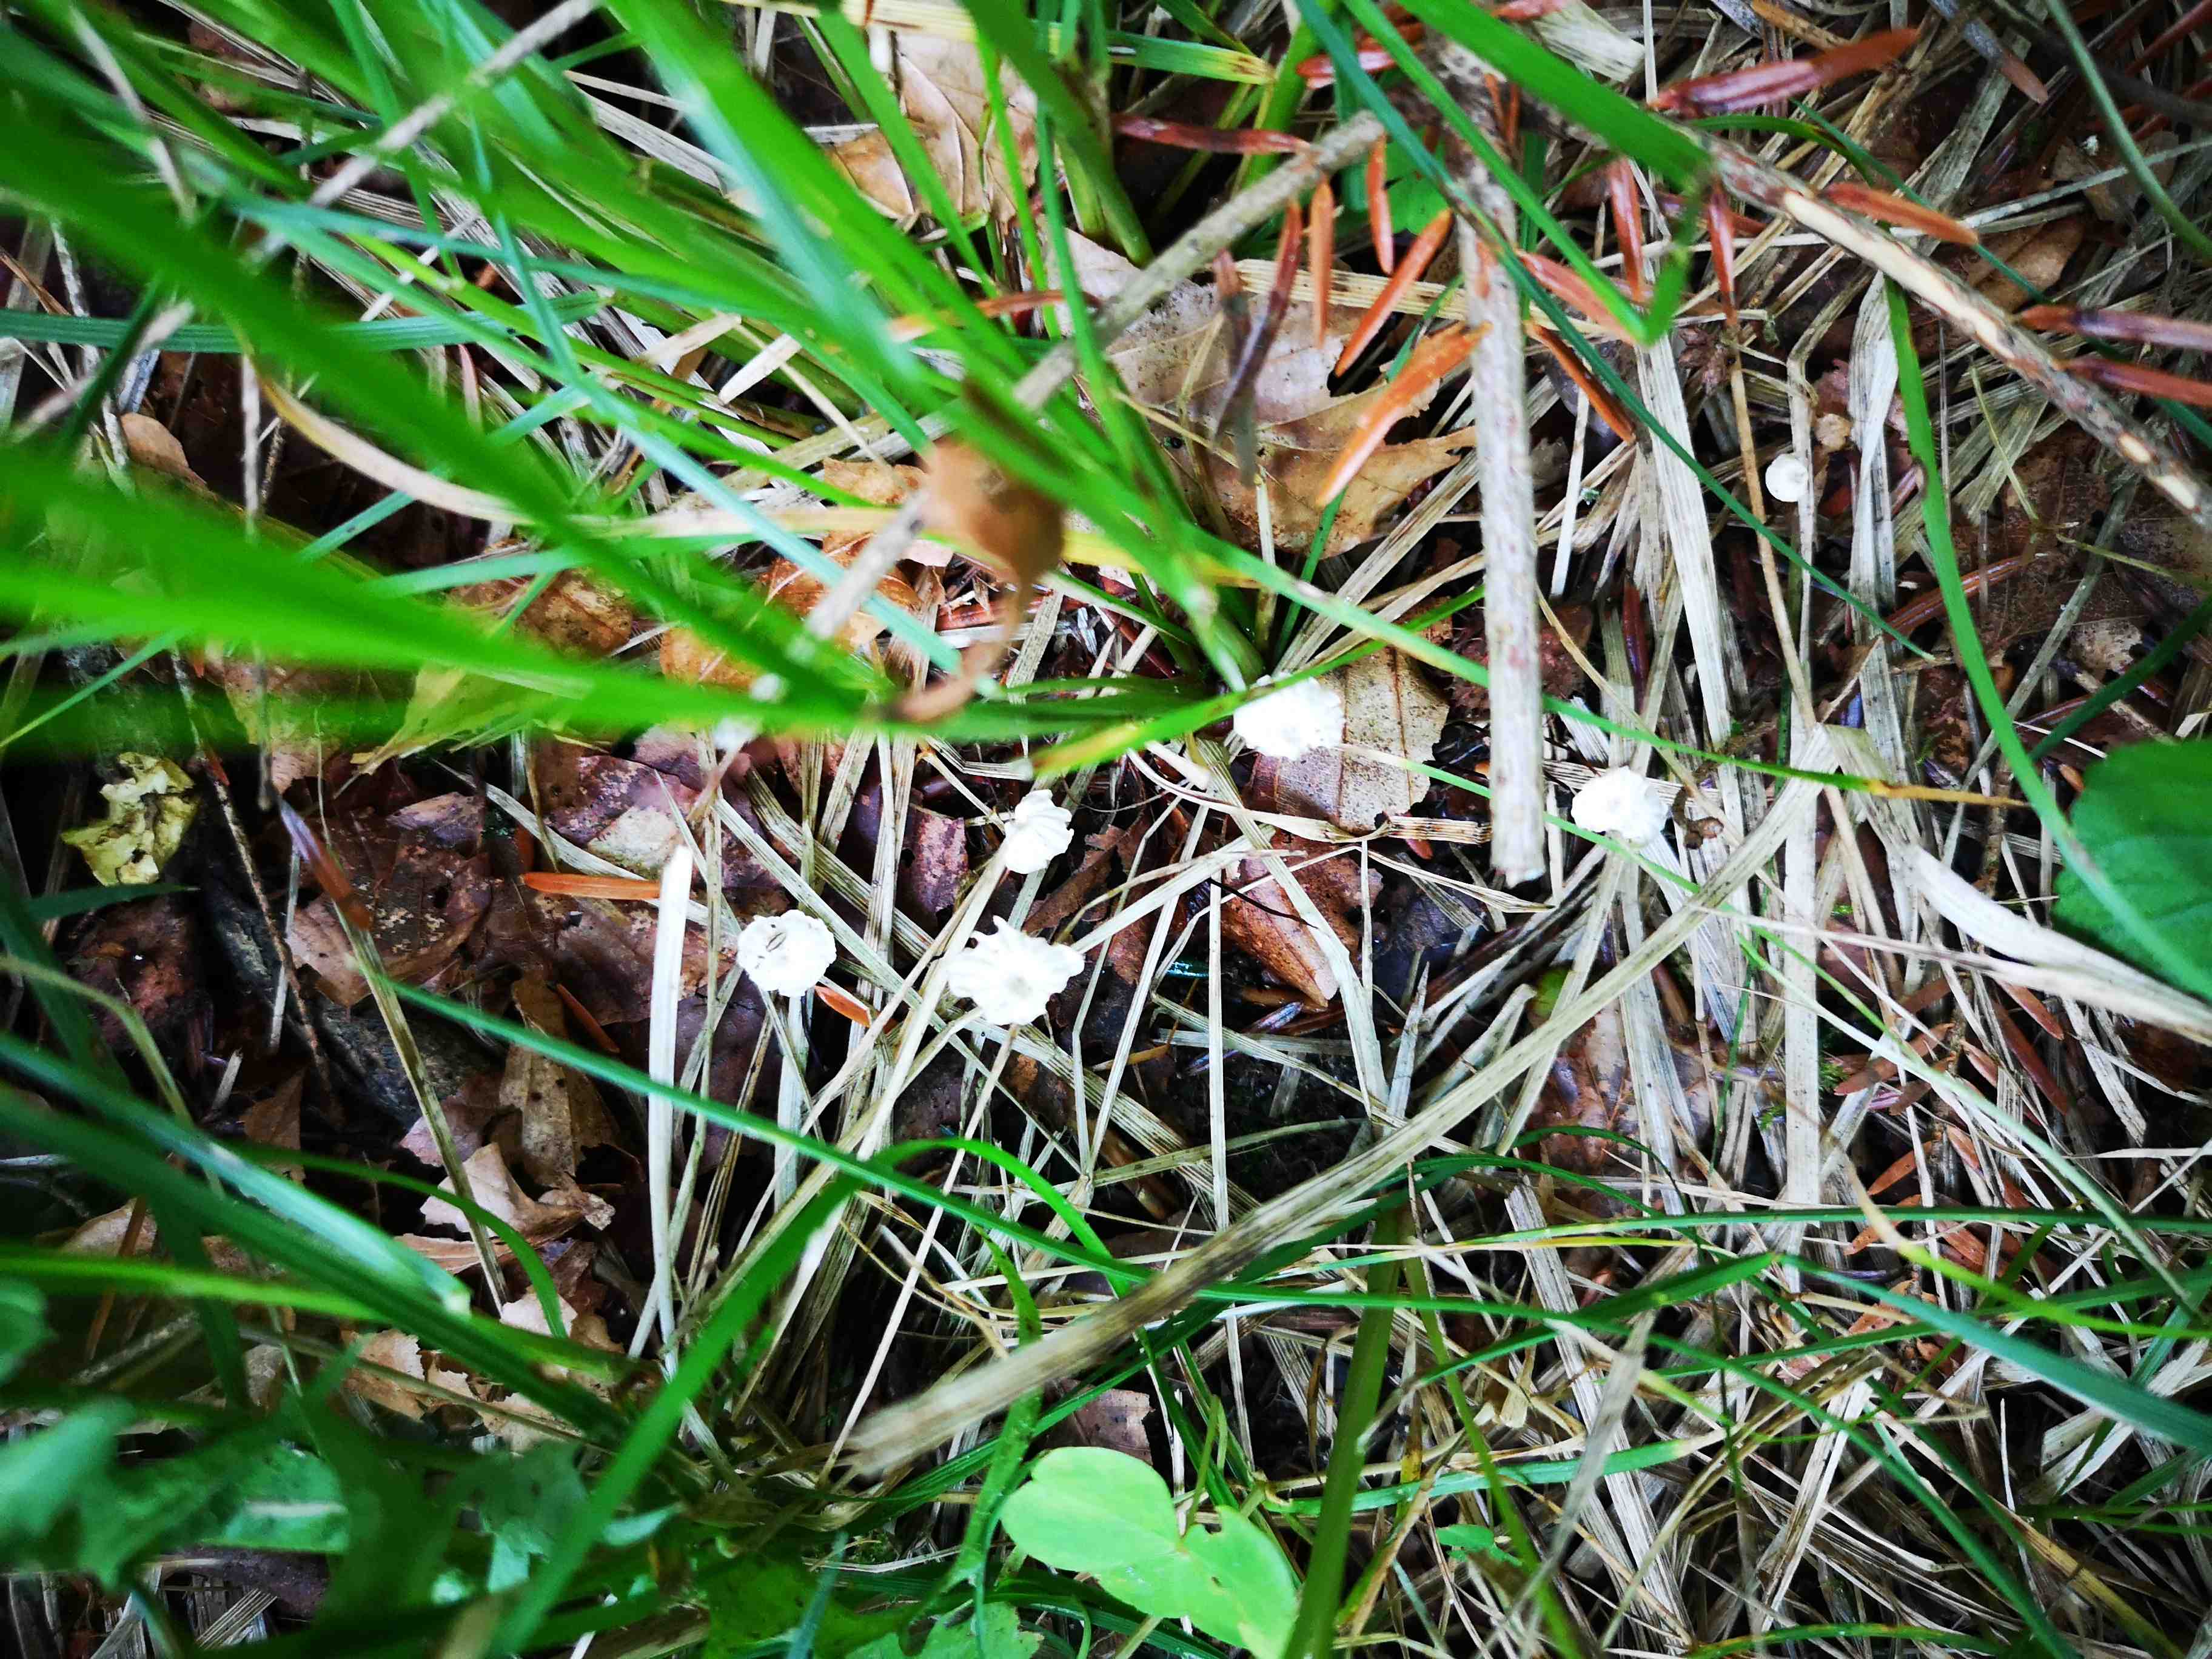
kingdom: Fungi
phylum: Basidiomycota
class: Agaricomycetes
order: Agaricales
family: Marasmiaceae
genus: Marasmius
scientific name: Marasmius rotula
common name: hjul-bruskhat
